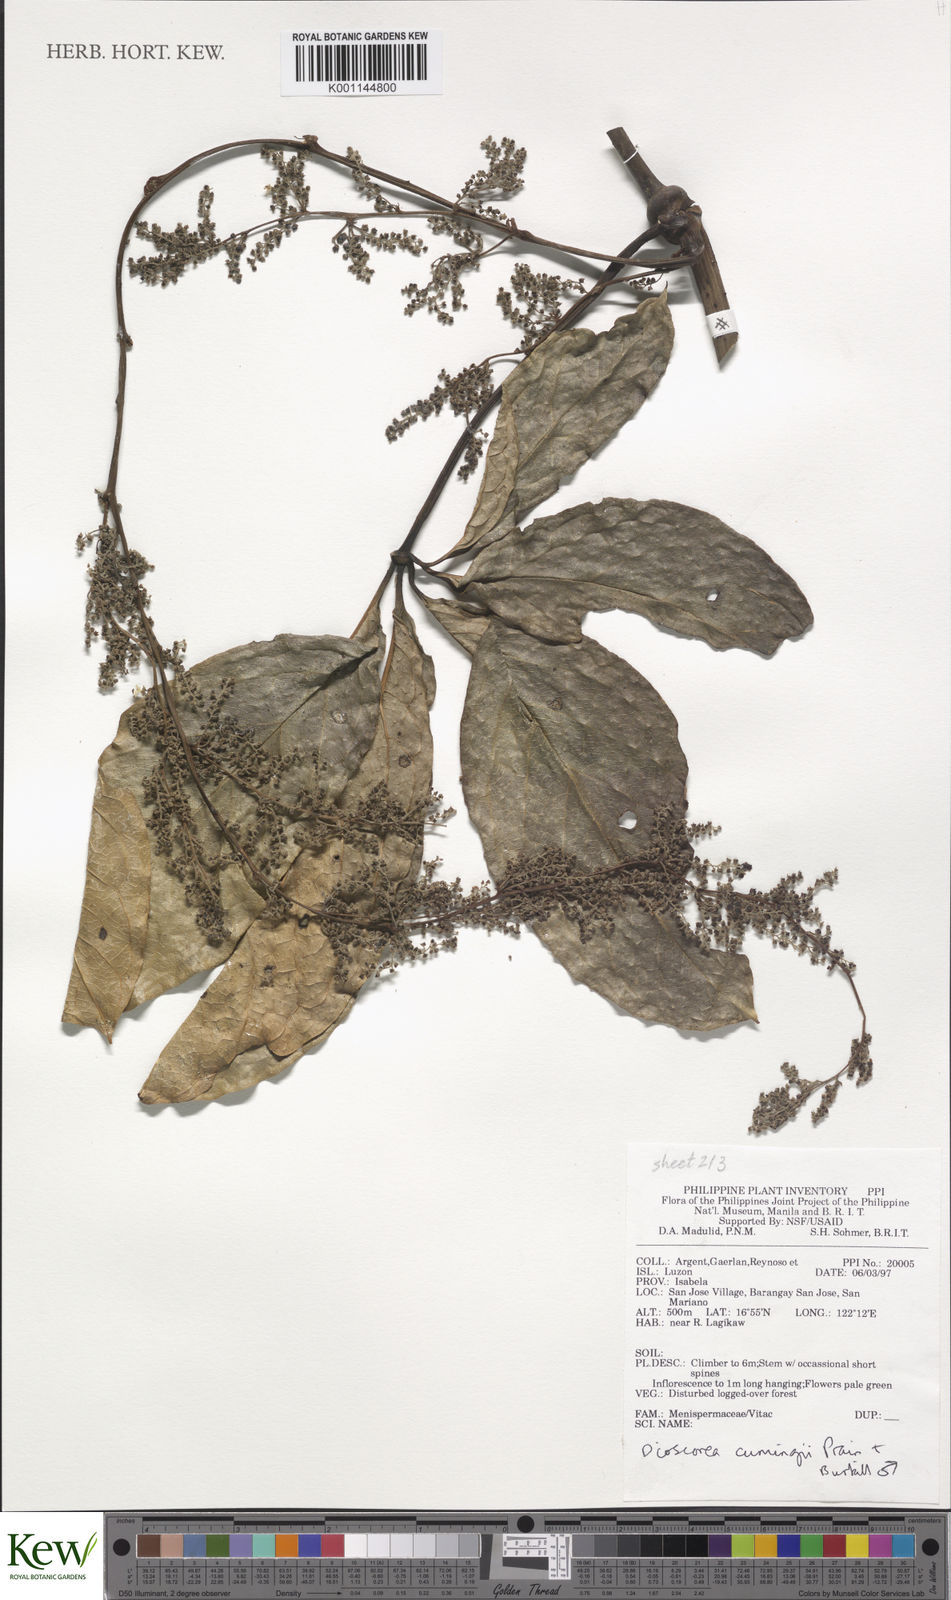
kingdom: Plantae
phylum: Tracheophyta
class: Liliopsida
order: Dioscoreales
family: Dioscoreaceae
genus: Dioscorea
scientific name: Dioscorea cumingii
